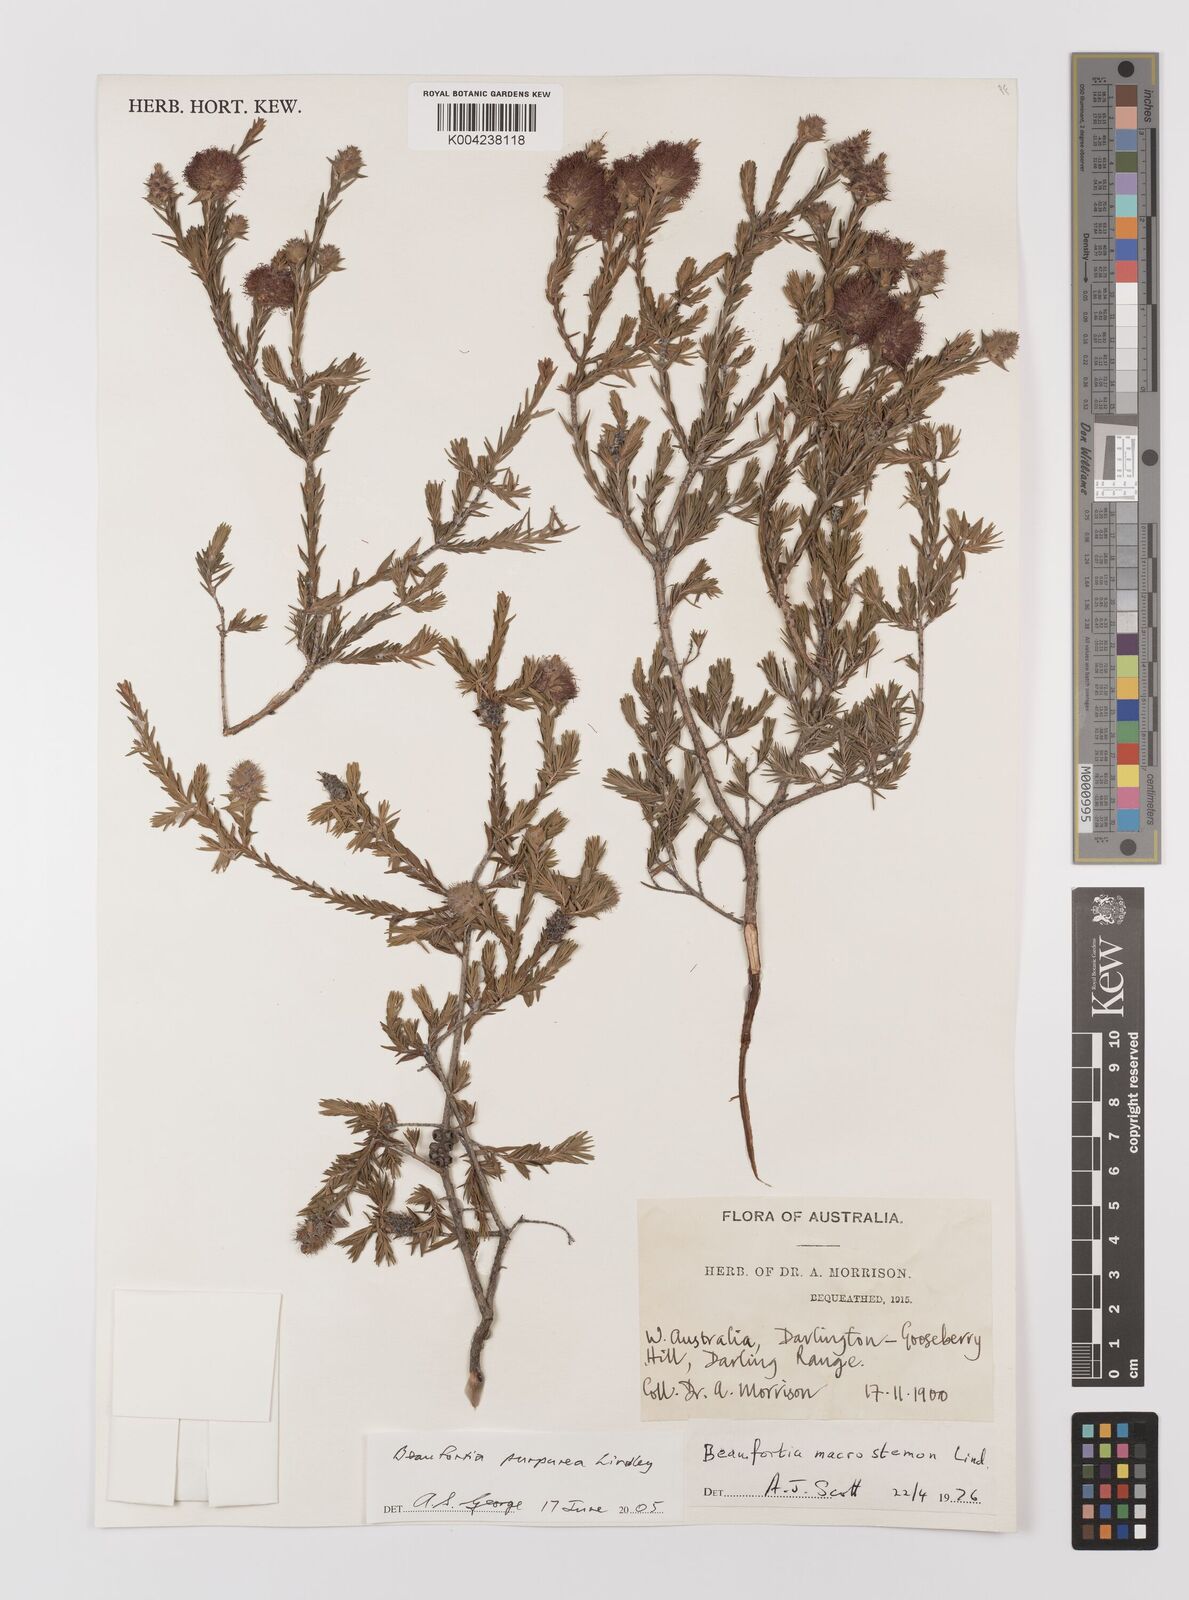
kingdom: Plantae
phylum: Tracheophyta
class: Magnoliopsida
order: Myrtales
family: Myrtaceae
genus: Melaleuca
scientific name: Melaleuca purpurea
